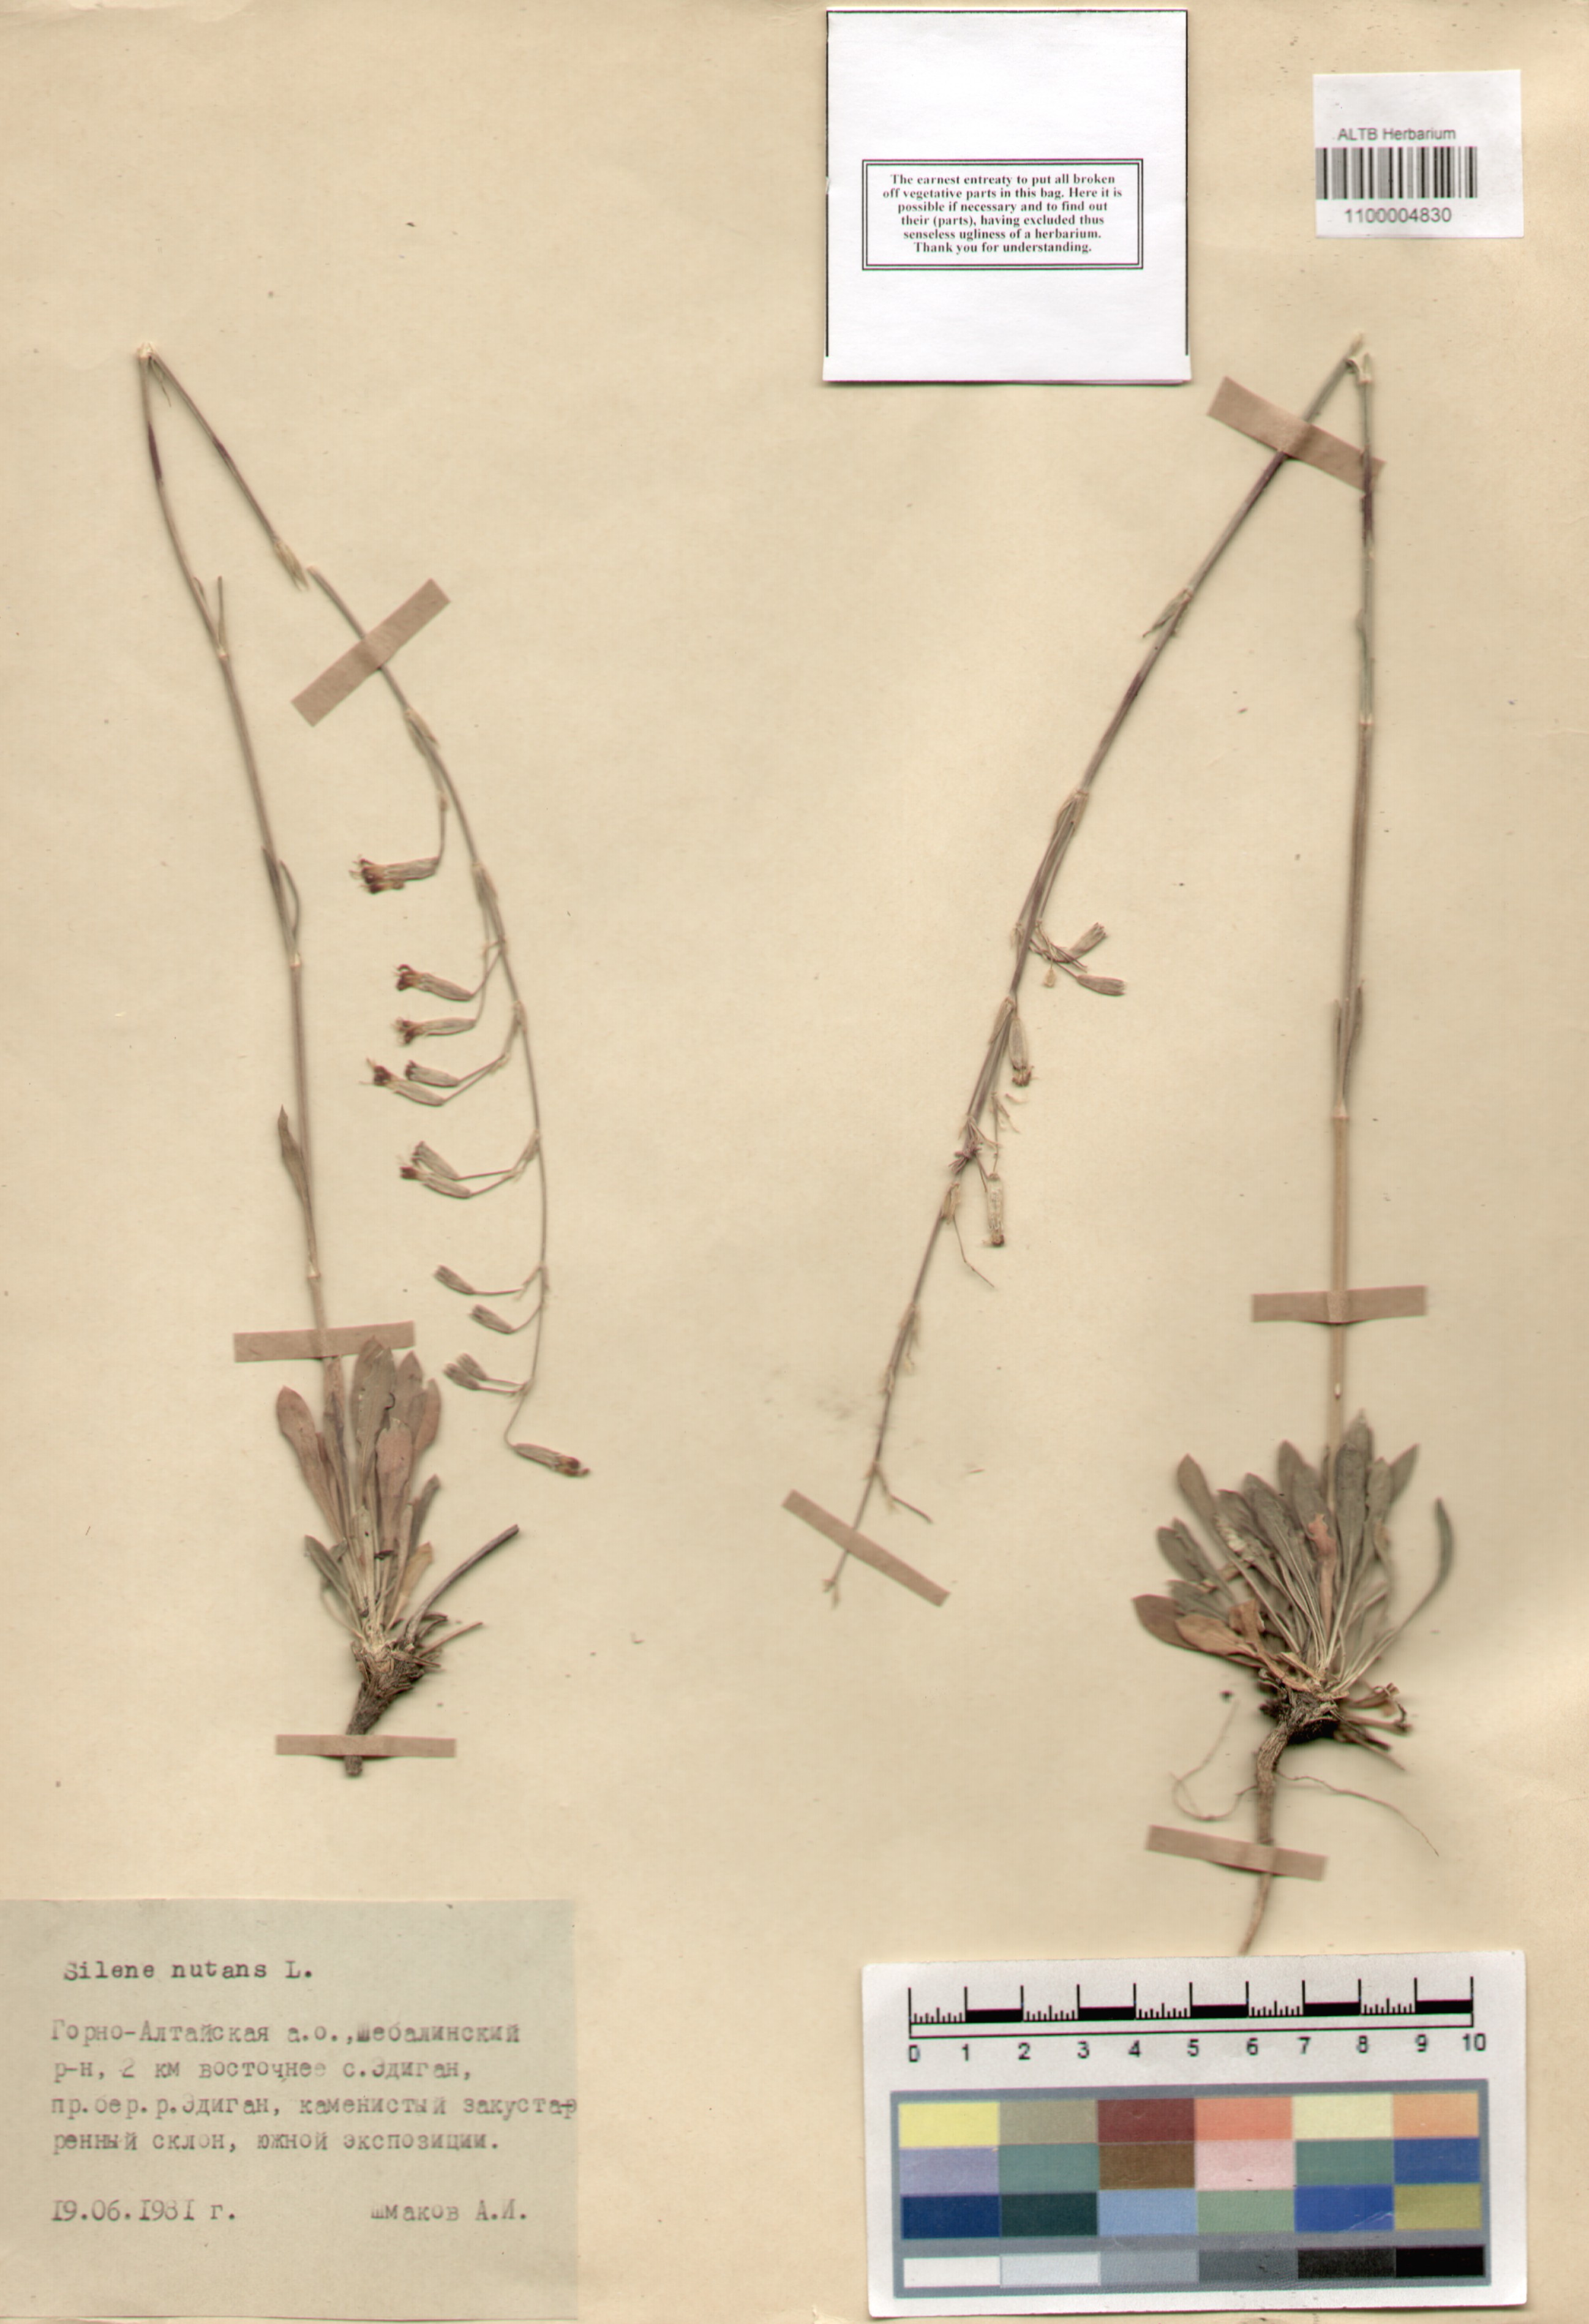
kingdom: Plantae
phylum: Tracheophyta
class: Magnoliopsida
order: Caryophyllales
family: Caryophyllaceae
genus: Silene
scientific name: Silene nutans
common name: Nottingham catchfly
